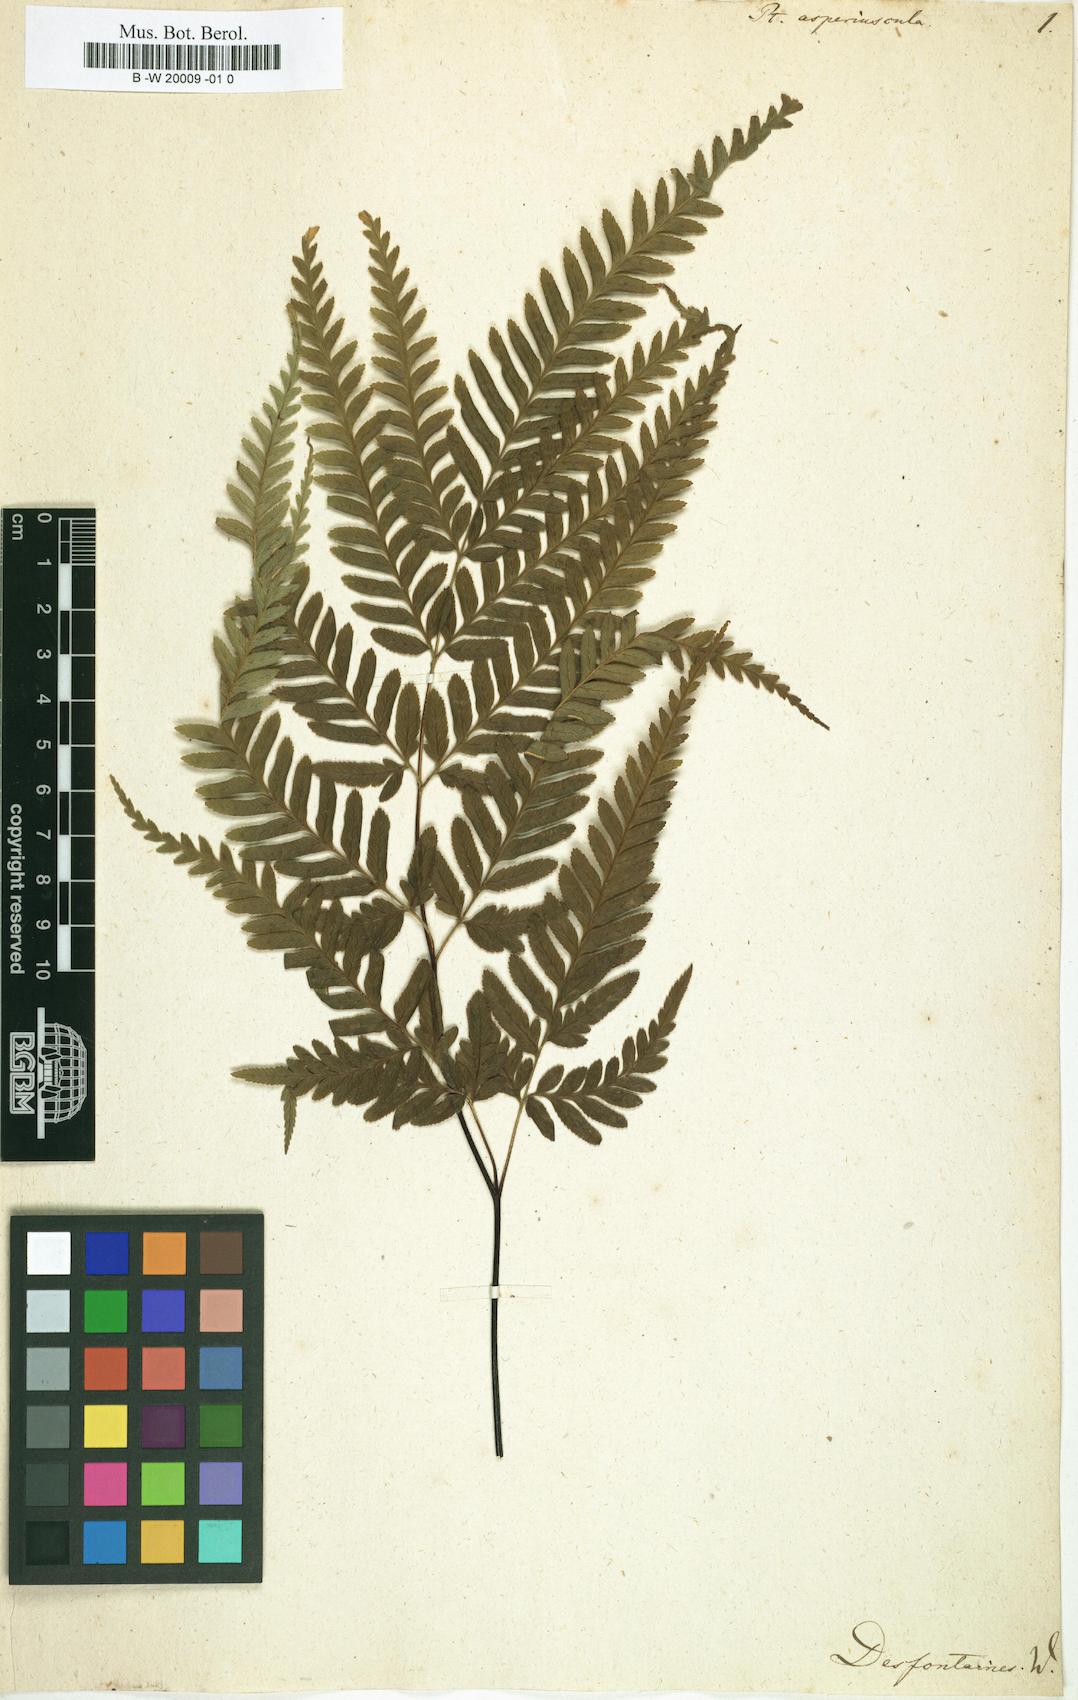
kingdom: Plantae
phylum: Tracheophyta
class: Polypodiopsida
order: Polypodiales
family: Pteridaceae
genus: Pteris
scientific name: Pteris asperiuscula
